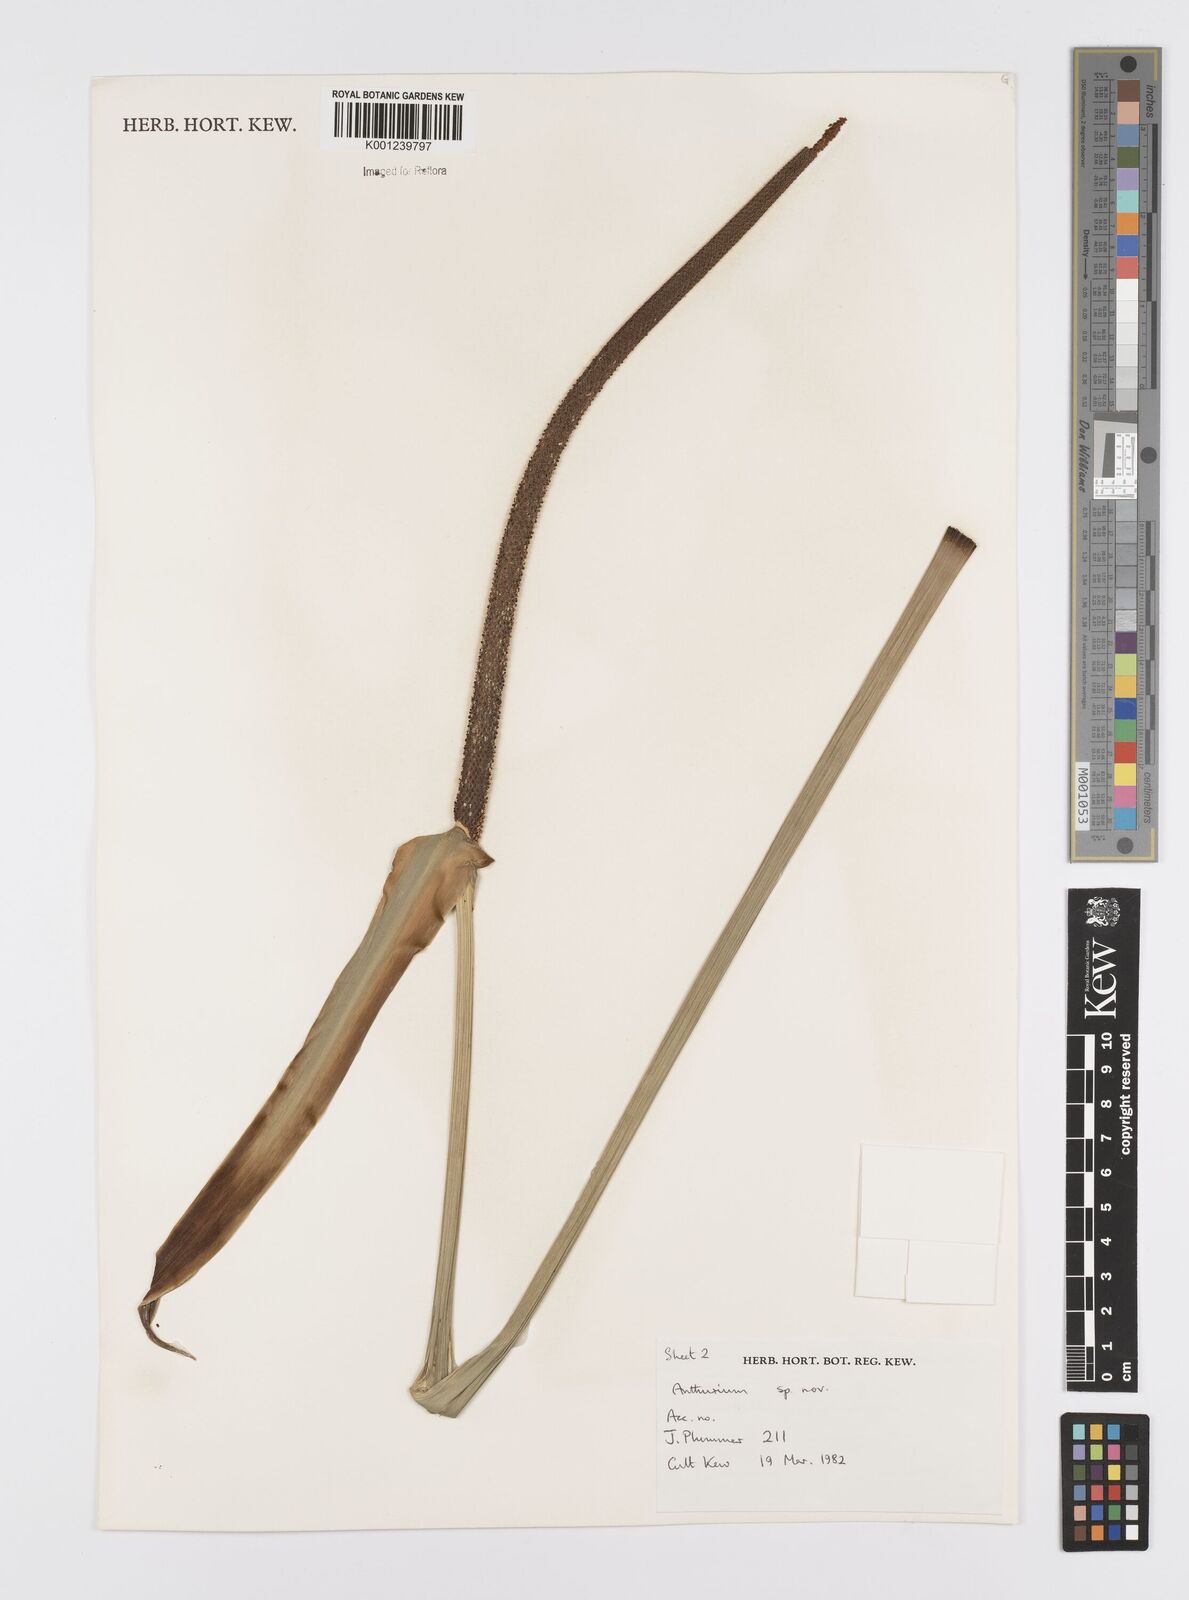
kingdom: Plantae
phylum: Tracheophyta
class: Liliopsida
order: Alismatales
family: Araceae
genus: Anthurium
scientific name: Anthurium
